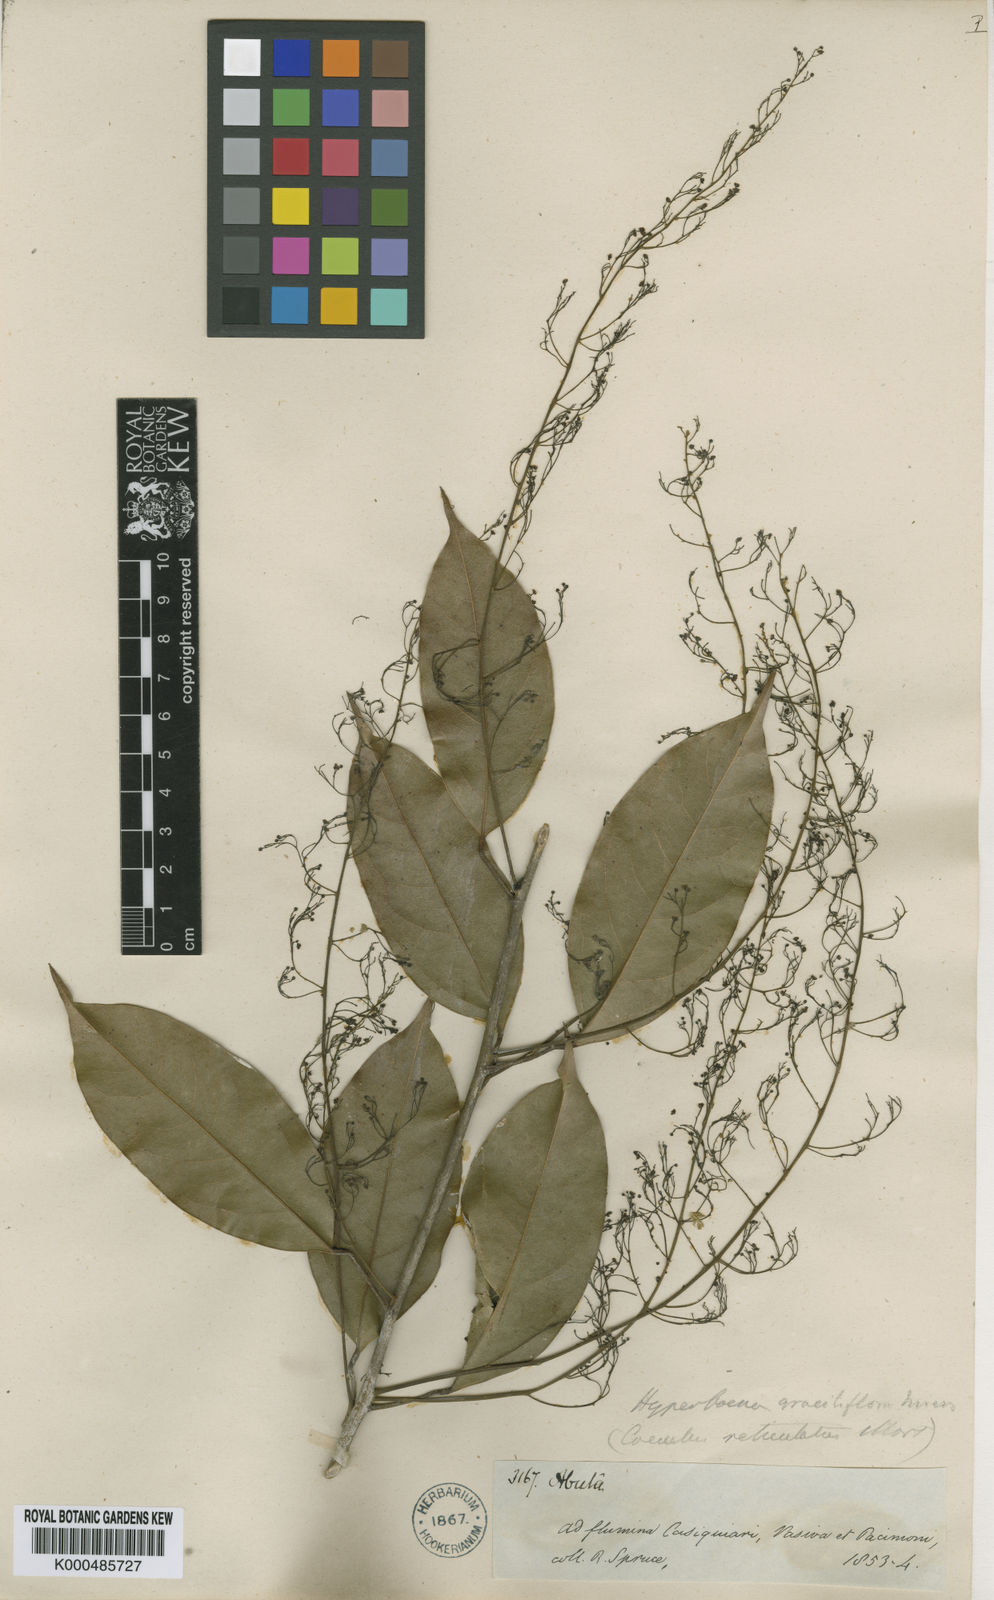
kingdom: Plantae
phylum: Tracheophyta
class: Magnoliopsida
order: Ranunculales
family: Menispermaceae
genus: Hyperbaena
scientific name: Hyperbaena domingensis
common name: Forest snakevine
